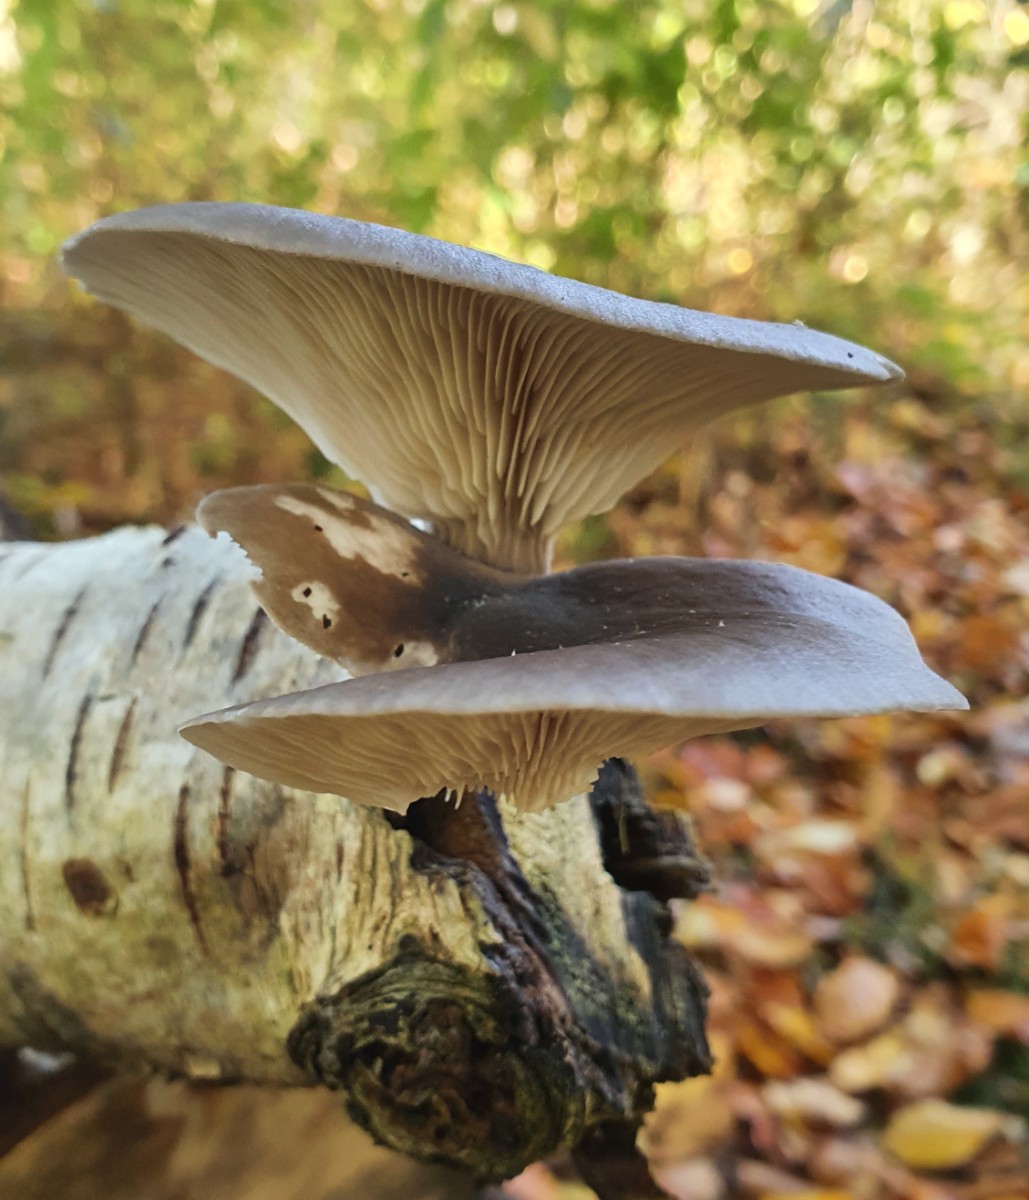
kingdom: Fungi
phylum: Basidiomycota
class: Agaricomycetes
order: Agaricales
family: Pleurotaceae
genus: Pleurotus
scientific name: Pleurotus ostreatus
